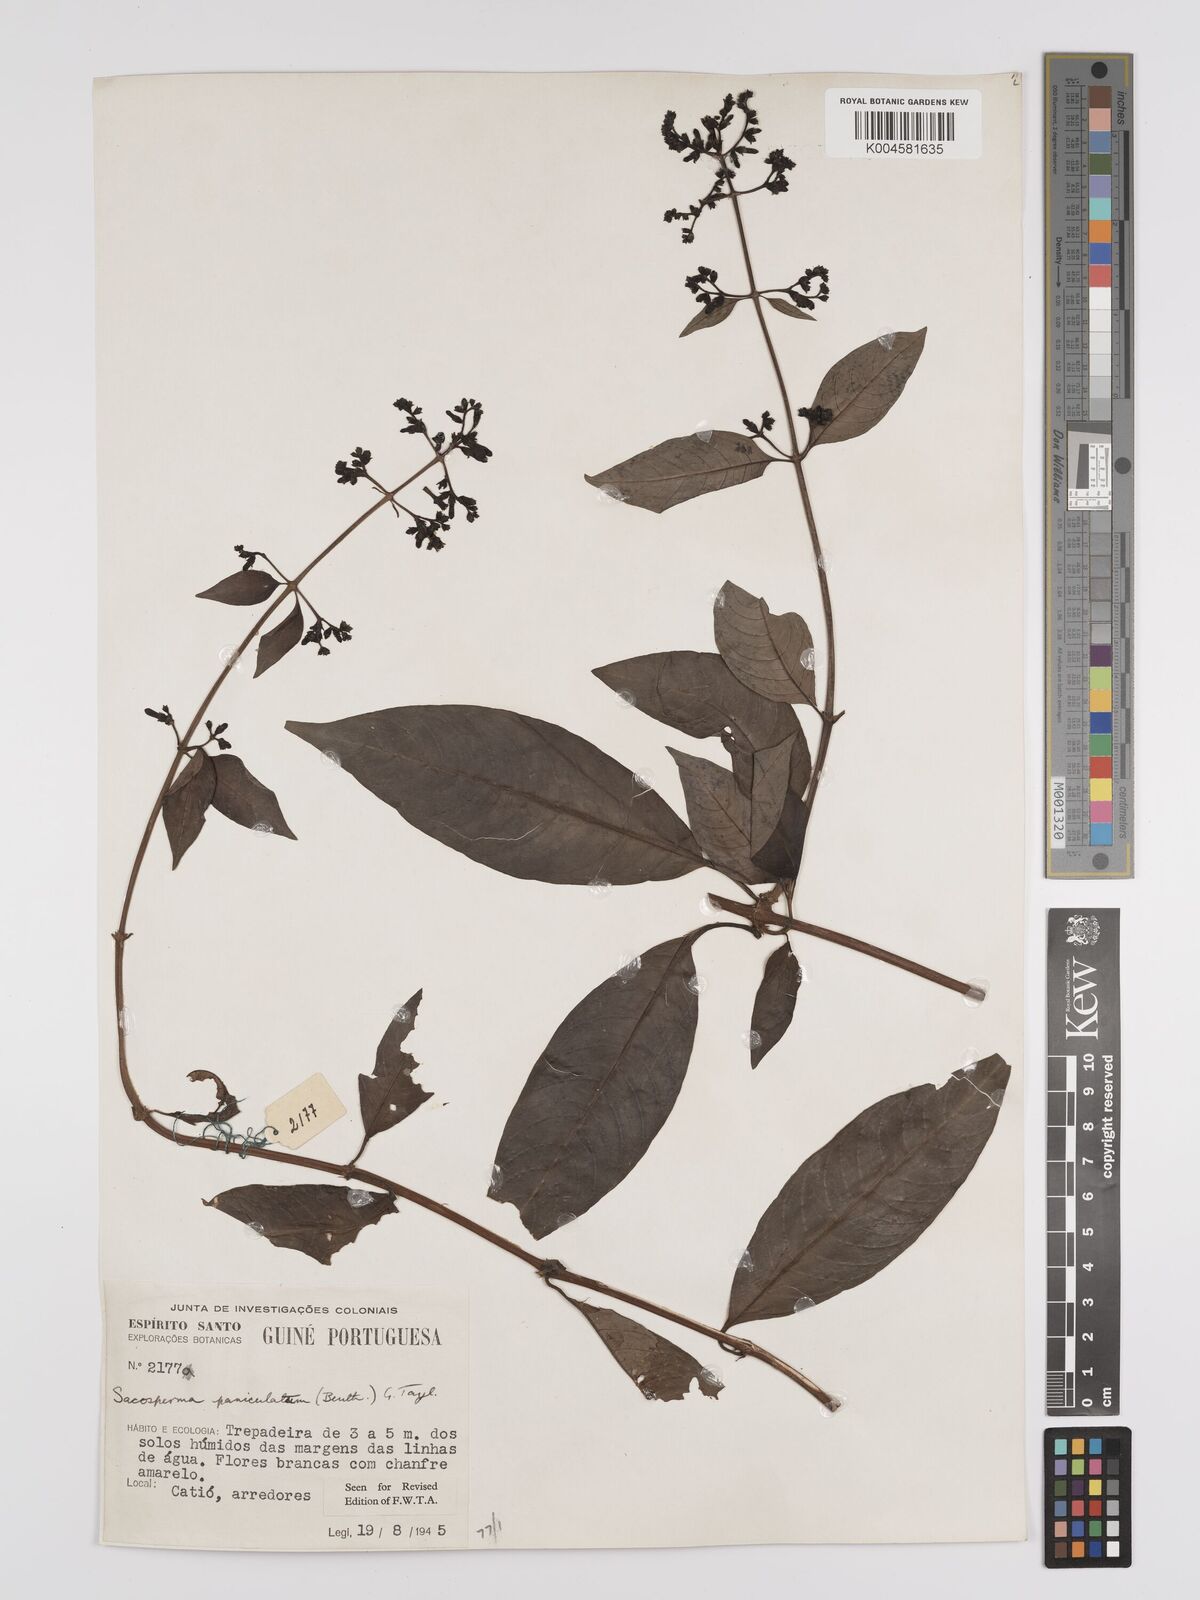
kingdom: Plantae
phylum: Tracheophyta
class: Magnoliopsida
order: Gentianales
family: Rubiaceae
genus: Sacosperma
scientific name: Sacosperma paniculatum
